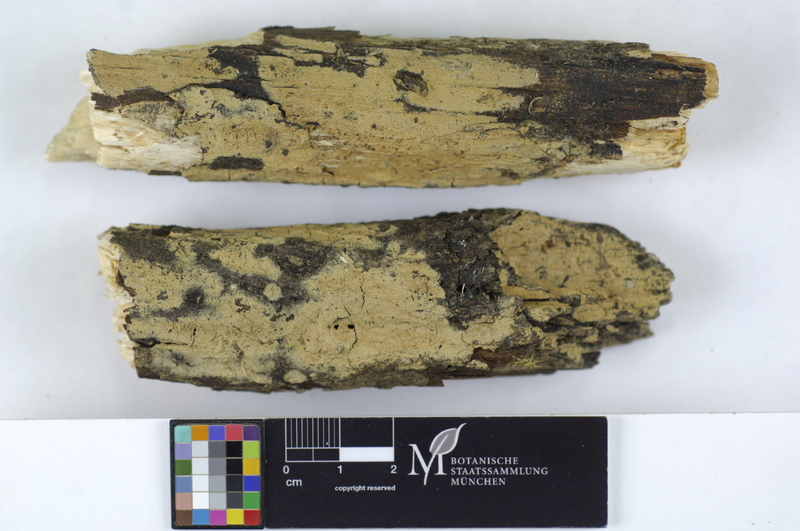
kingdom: Plantae
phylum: Tracheophyta
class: Magnoliopsida
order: Malpighiales
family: Salicaceae
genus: Salix
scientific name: Salix
